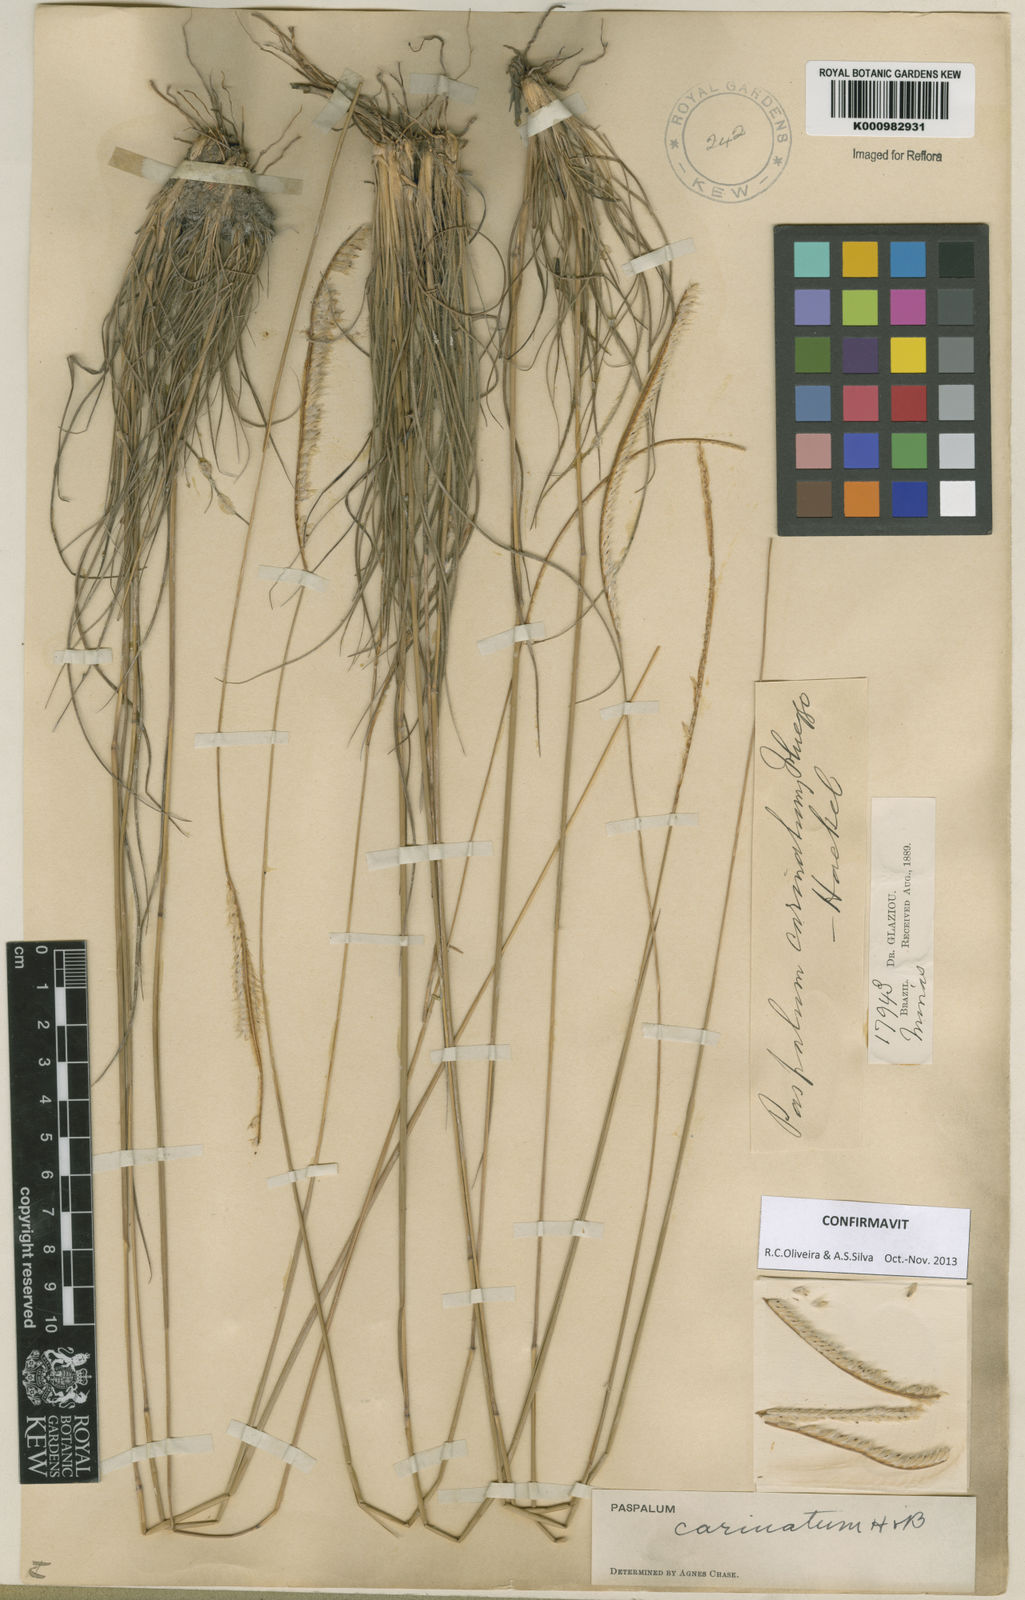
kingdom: Plantae
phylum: Tracheophyta
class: Liliopsida
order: Poales
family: Poaceae
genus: Paspalum
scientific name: Paspalum
